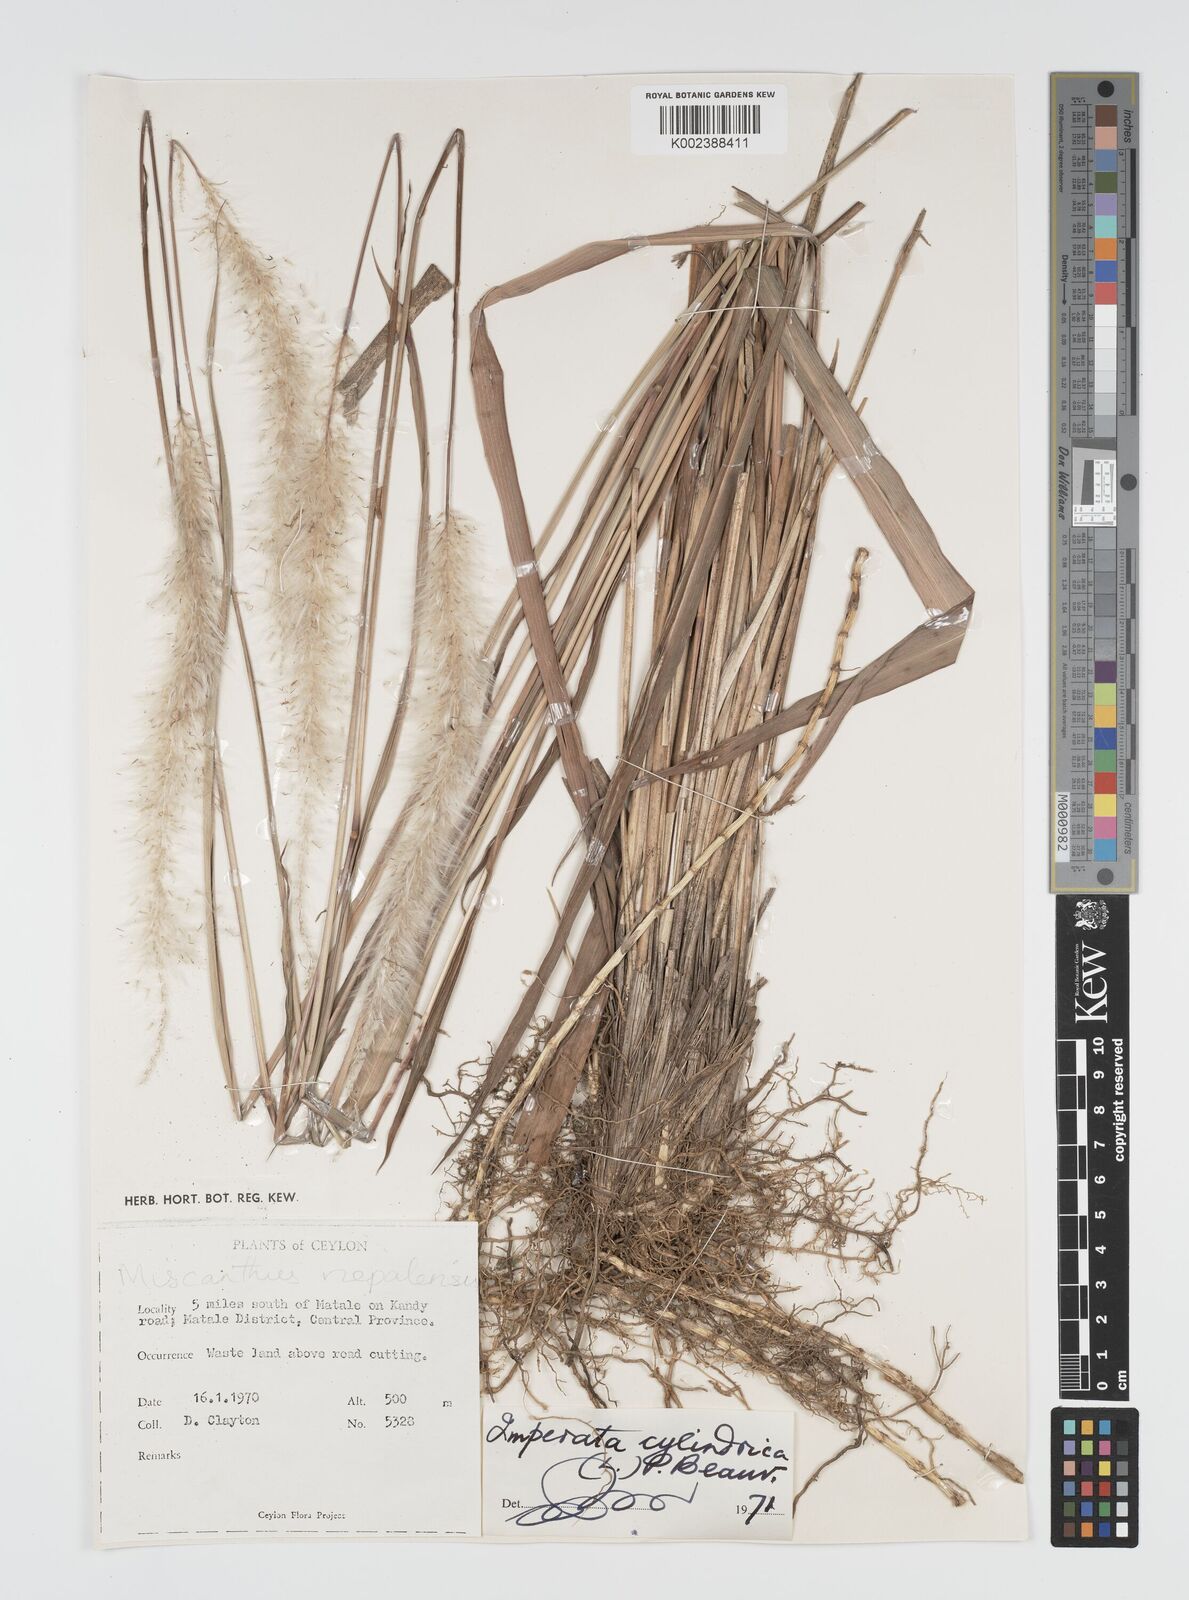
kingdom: Plantae
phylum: Tracheophyta
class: Liliopsida
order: Poales
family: Poaceae
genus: Imperata
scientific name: Imperata cylindrica
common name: Cogongrass
